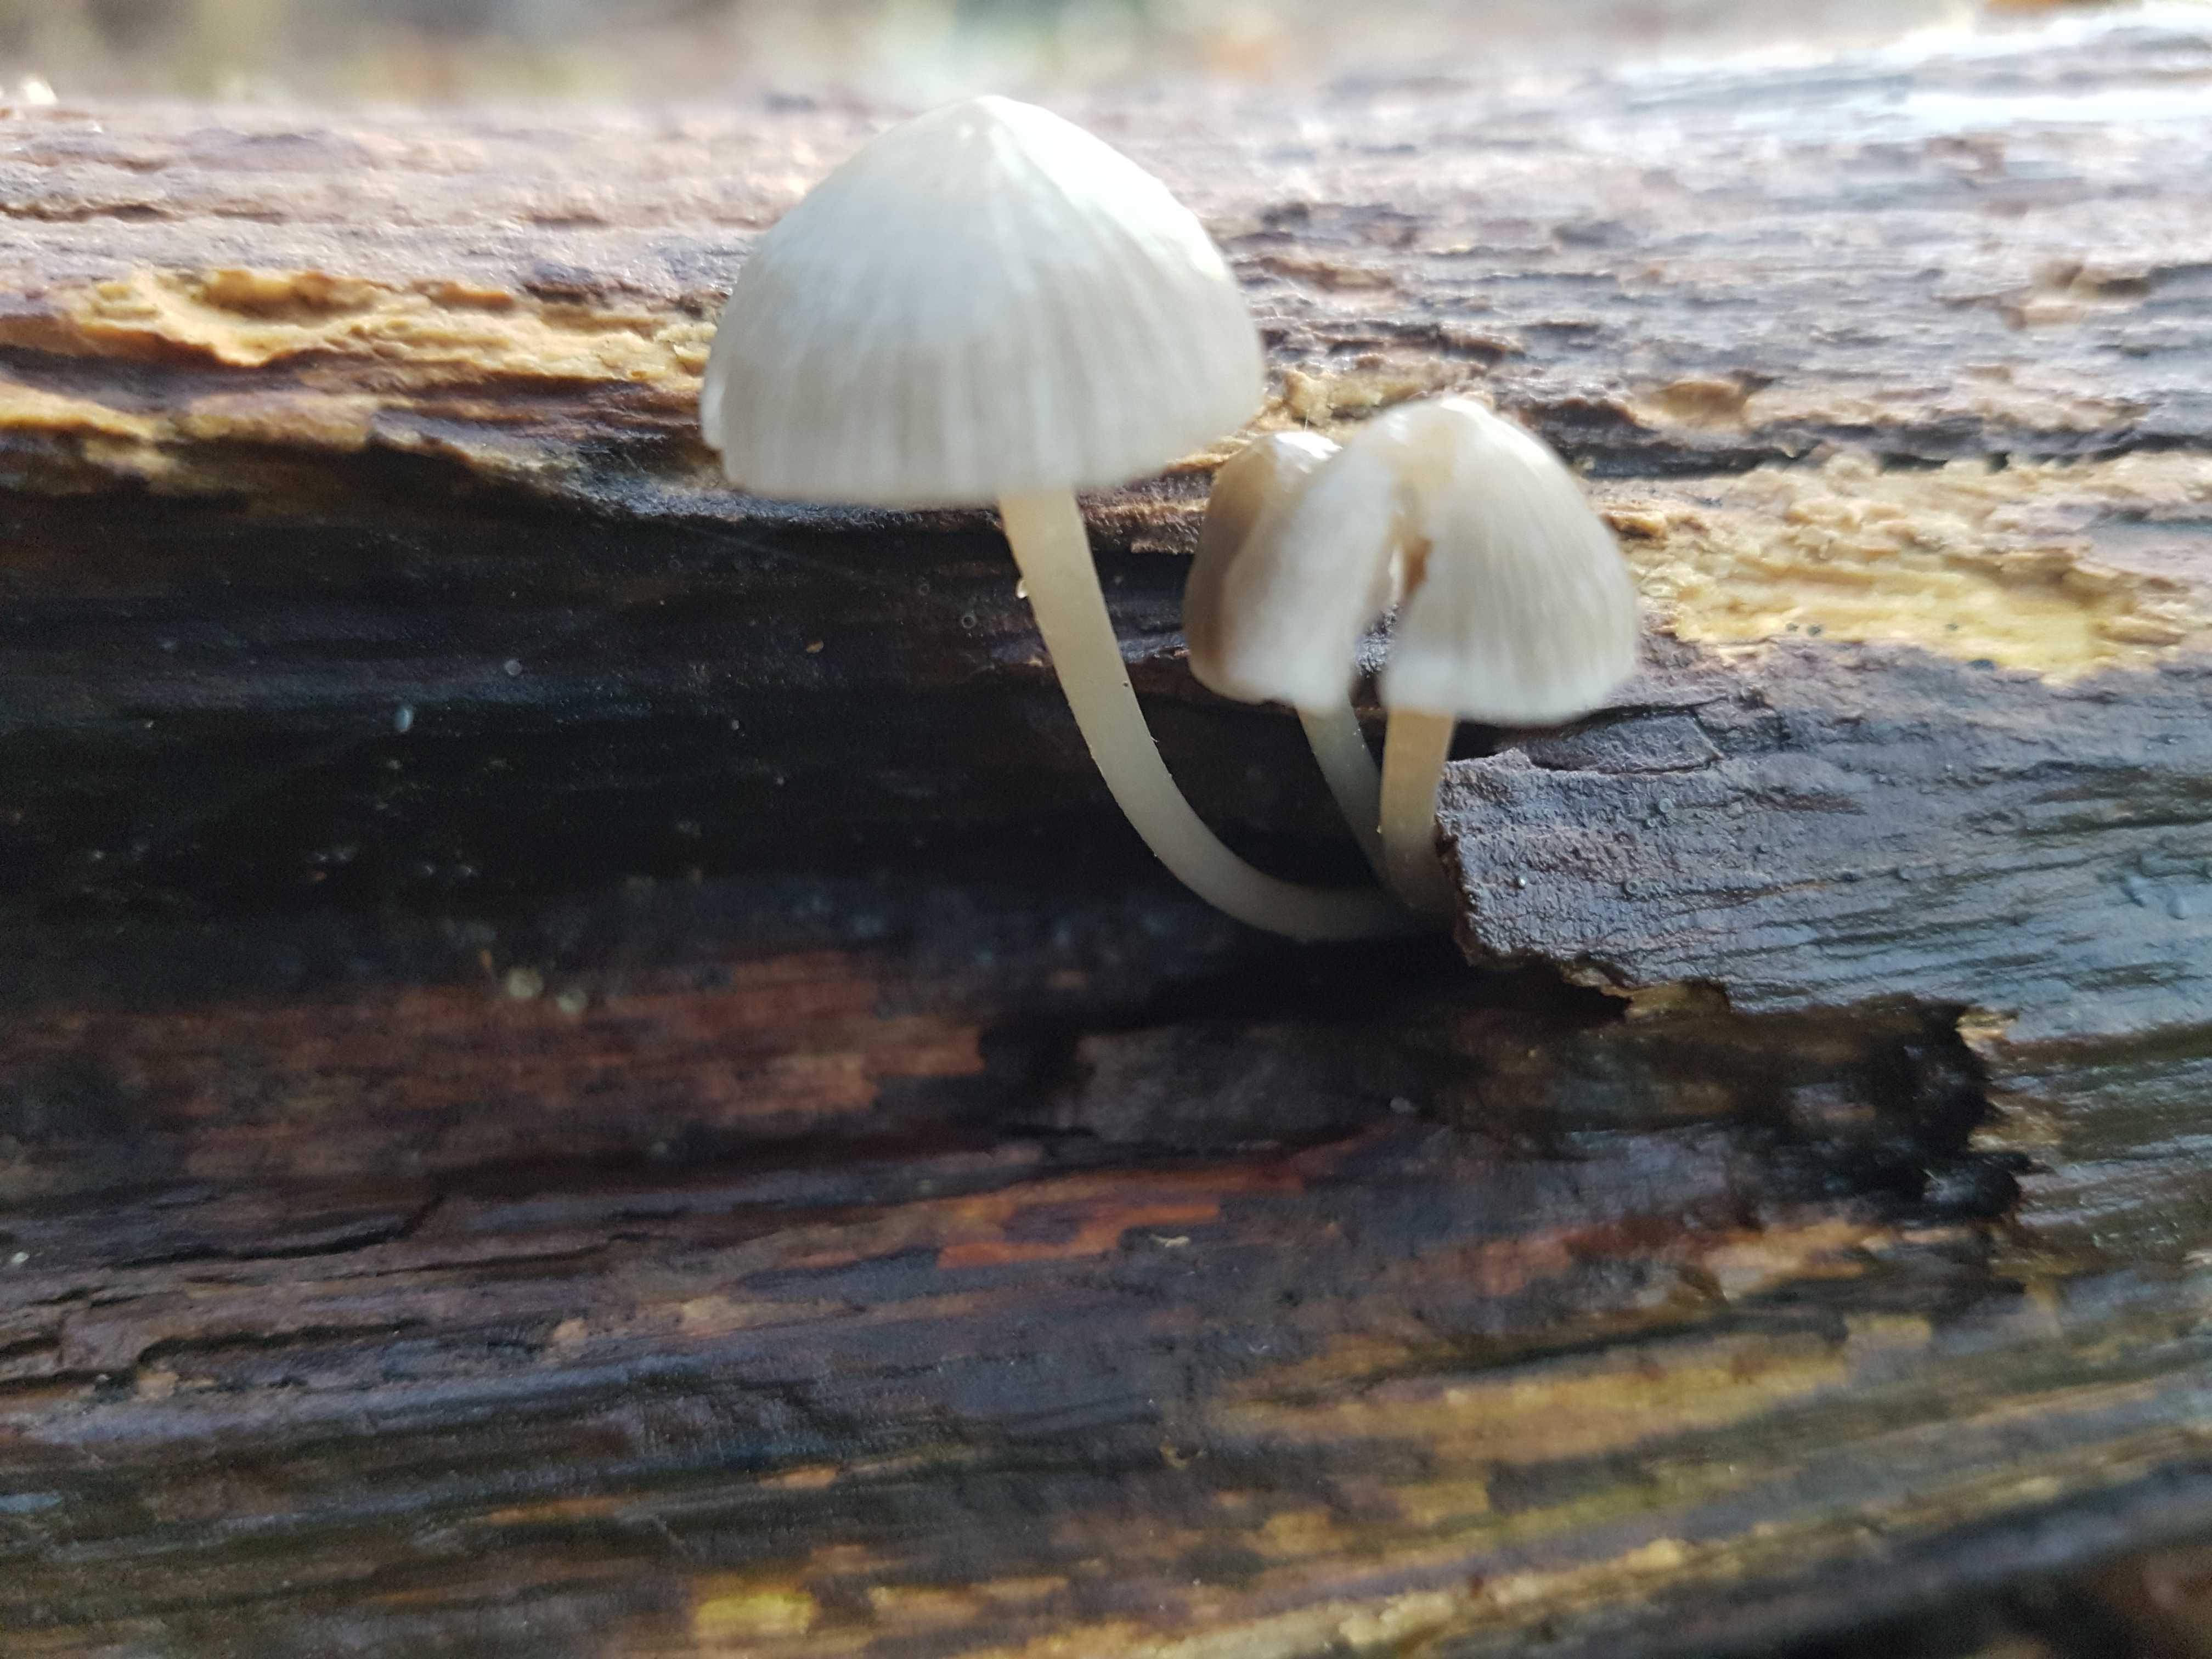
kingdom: Fungi
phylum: Basidiomycota
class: Agaricomycetes
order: Agaricales
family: Mycenaceae
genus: Mycena
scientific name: Mycena
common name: huesvamp
